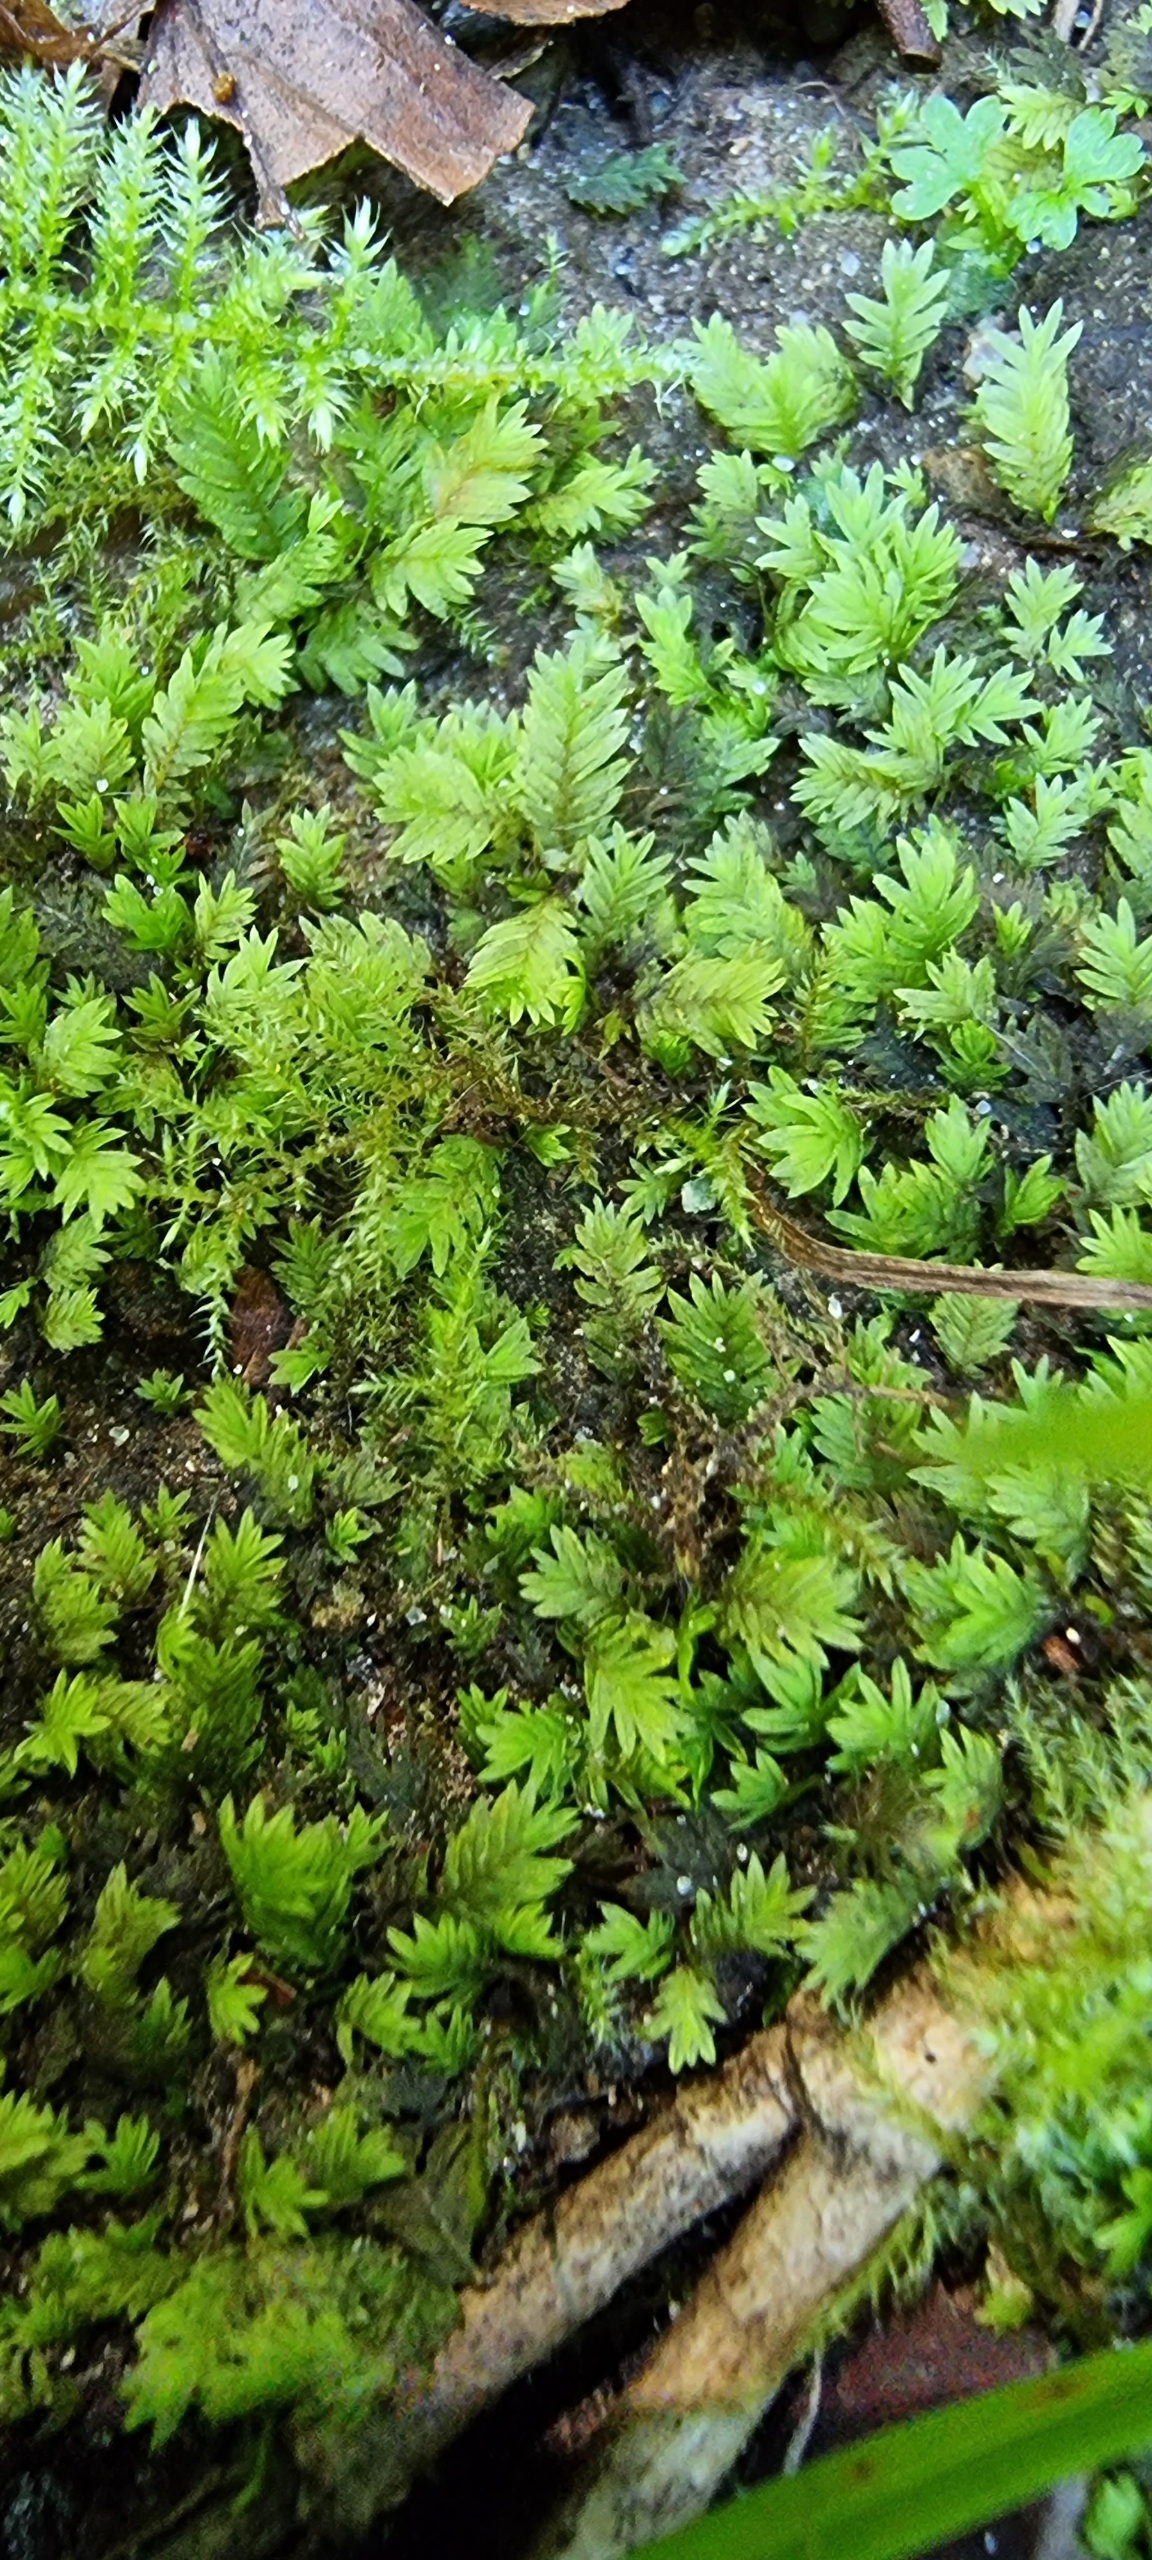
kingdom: Plantae
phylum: Bryophyta
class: Bryopsida
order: Dicranales
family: Fissidentaceae
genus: Fissidens
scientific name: Fissidens
